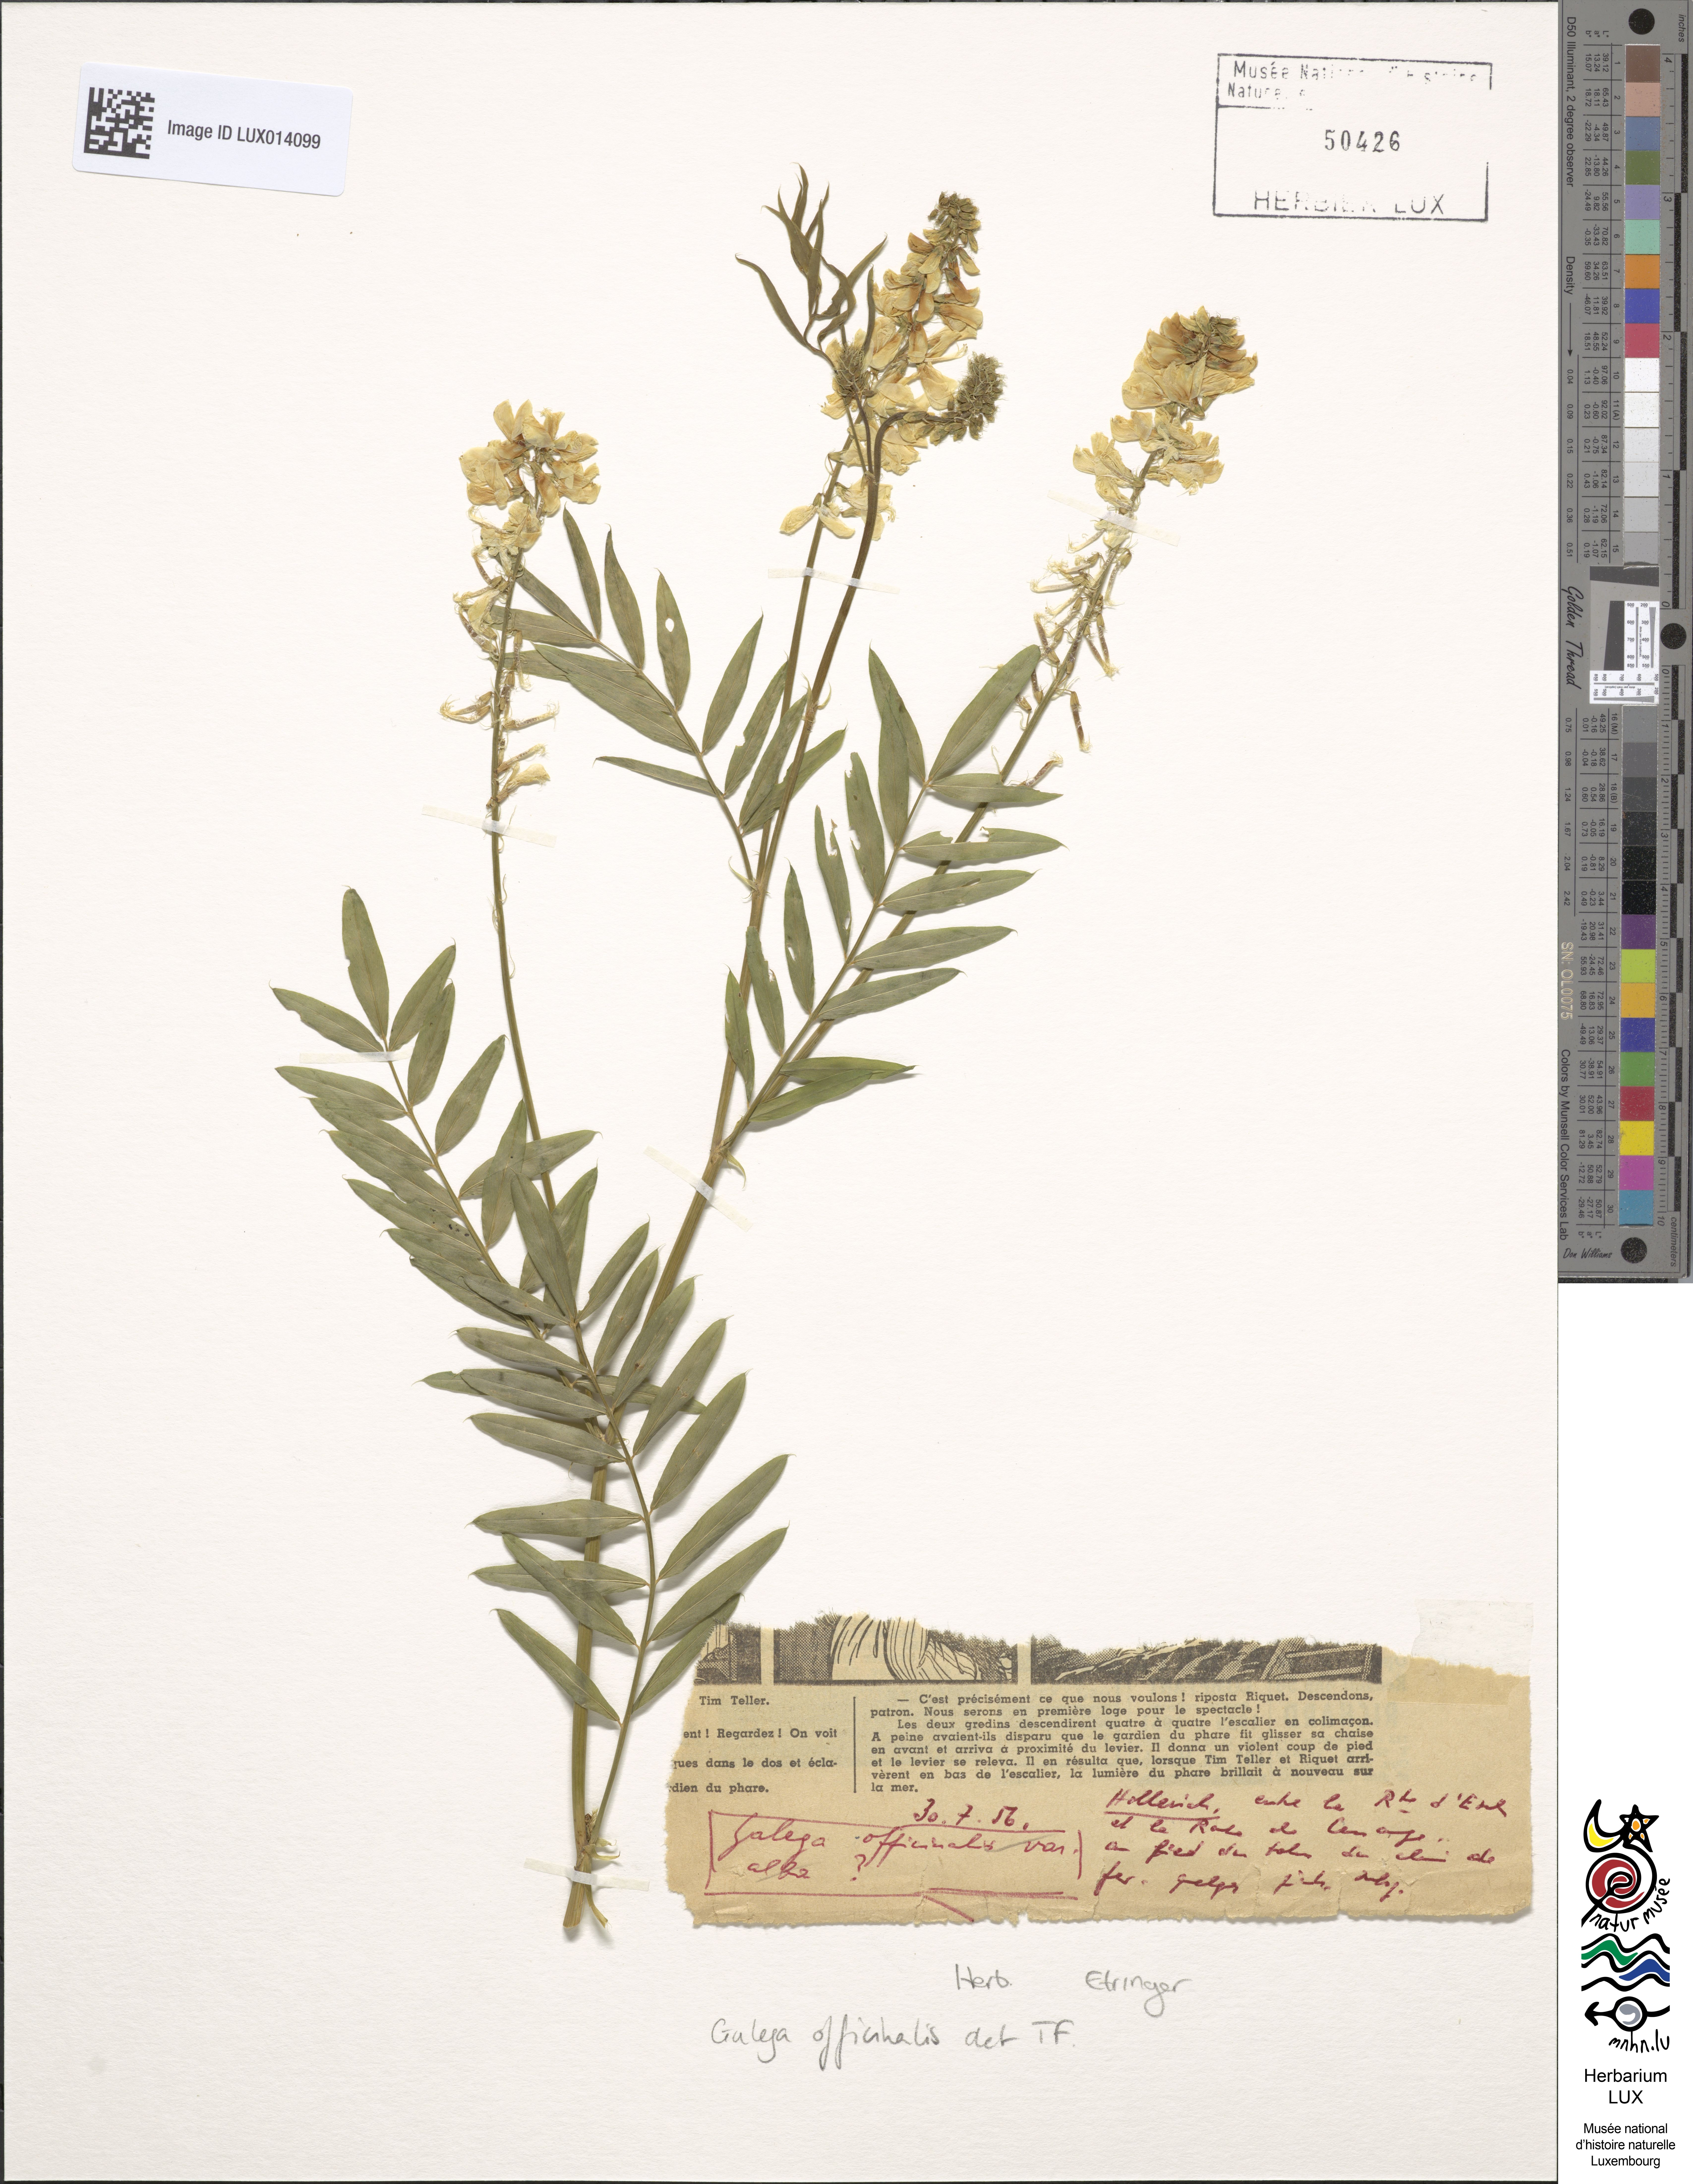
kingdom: Plantae
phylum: Tracheophyta
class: Magnoliopsida
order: Fabales
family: Fabaceae
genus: Galega
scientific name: Galega officinalis
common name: Goat's-rue
